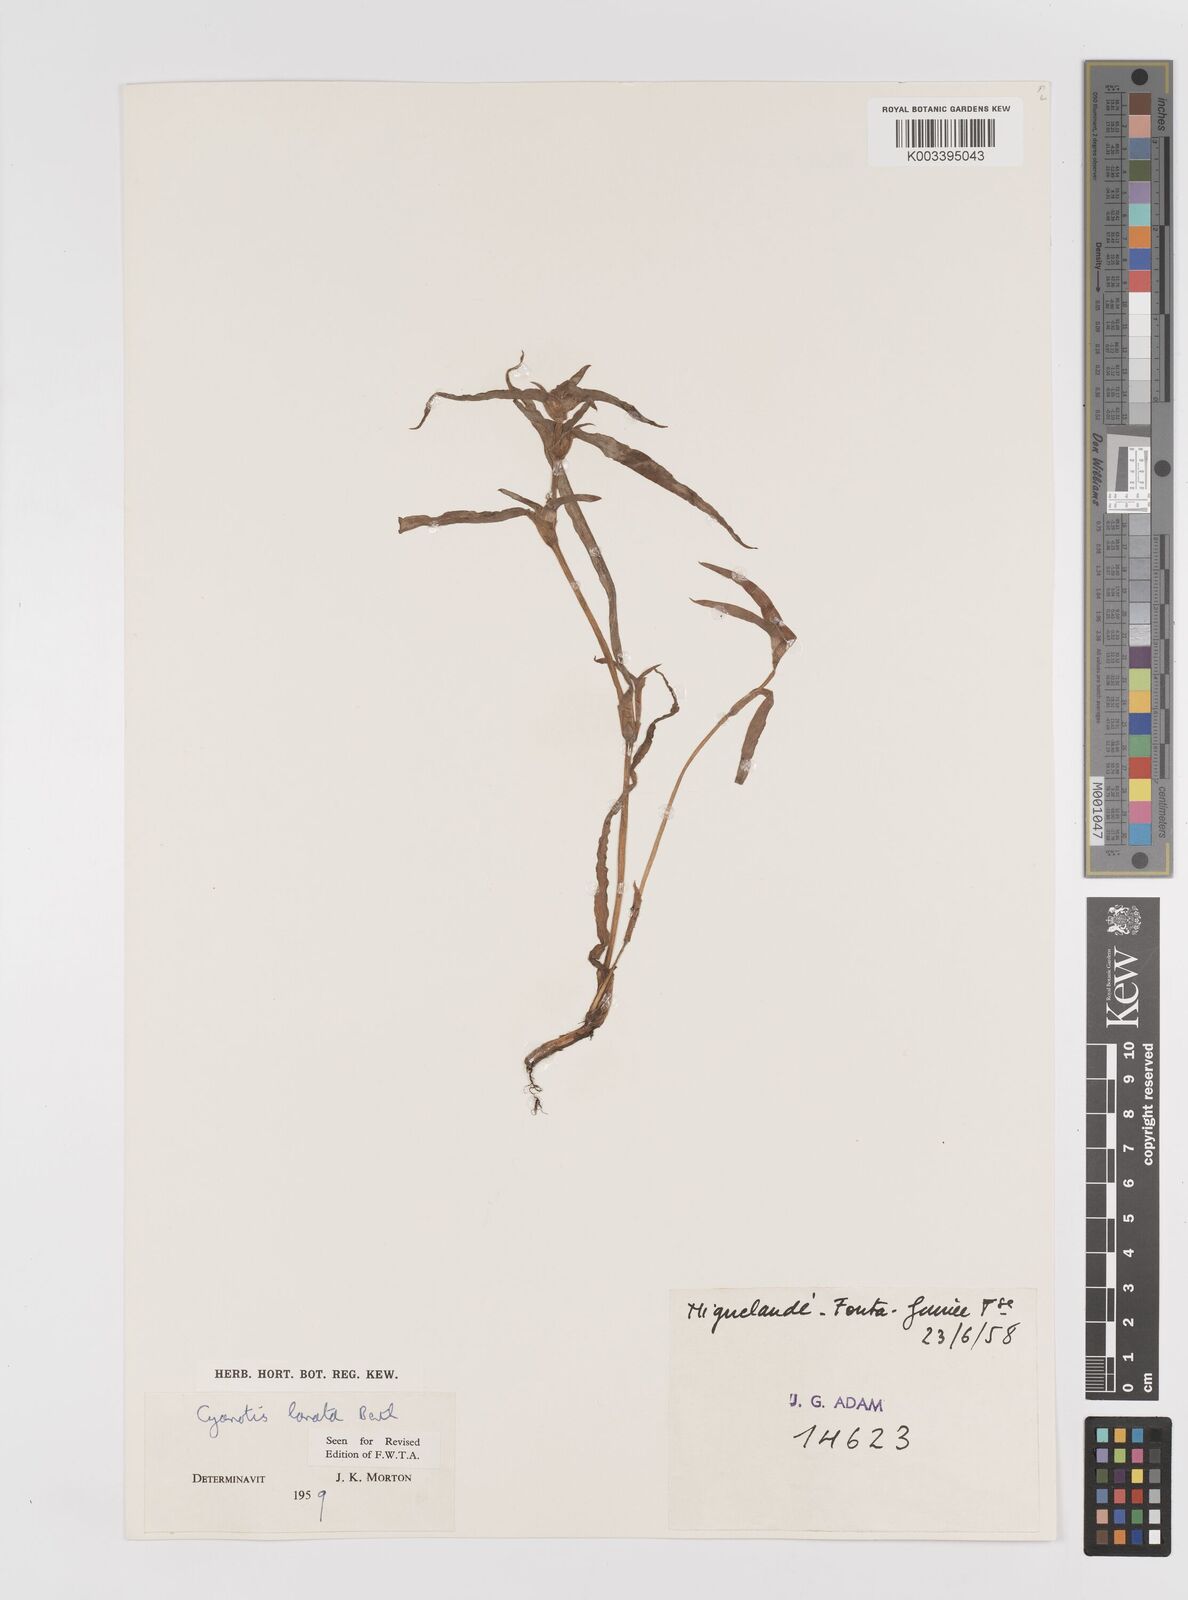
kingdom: Plantae
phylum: Tracheophyta
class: Liliopsida
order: Commelinales
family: Commelinaceae
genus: Cyanotis
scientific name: Cyanotis lanata
